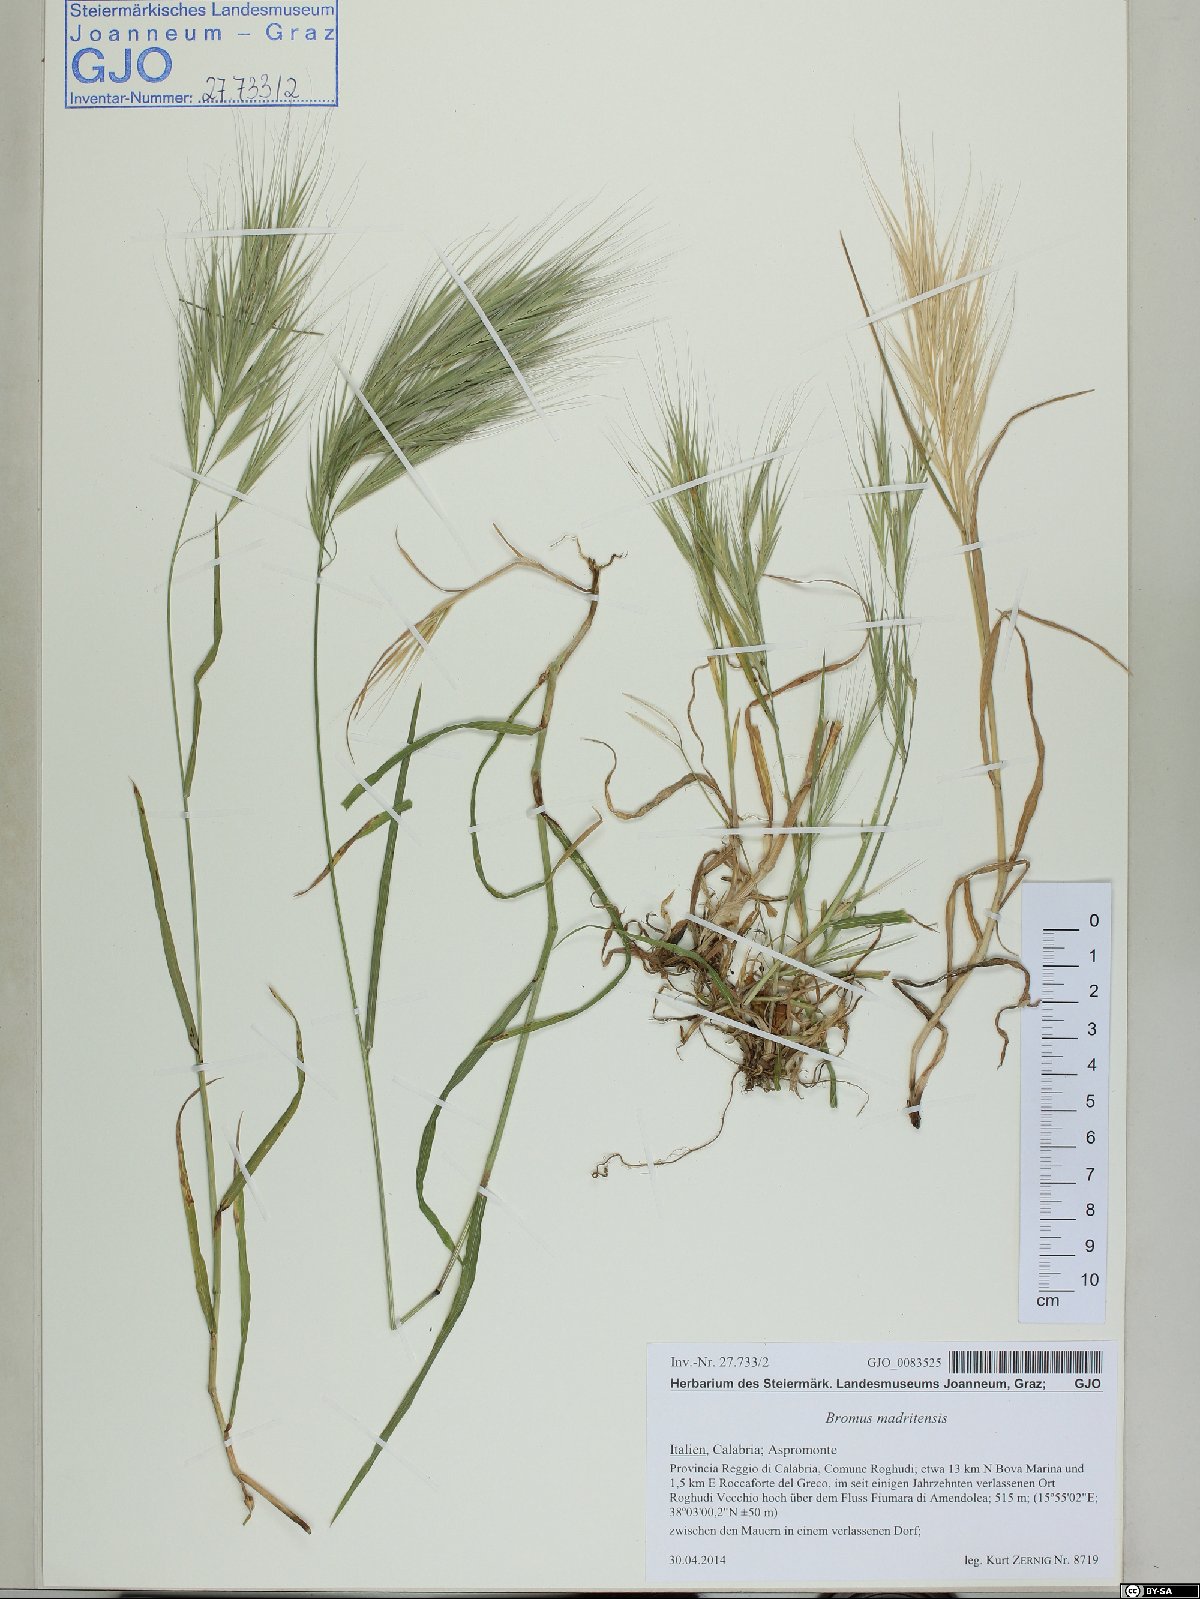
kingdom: Plantae
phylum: Tracheophyta
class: Liliopsida
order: Poales
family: Poaceae
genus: Bromus
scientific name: Bromus madritensis
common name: Compact brome
